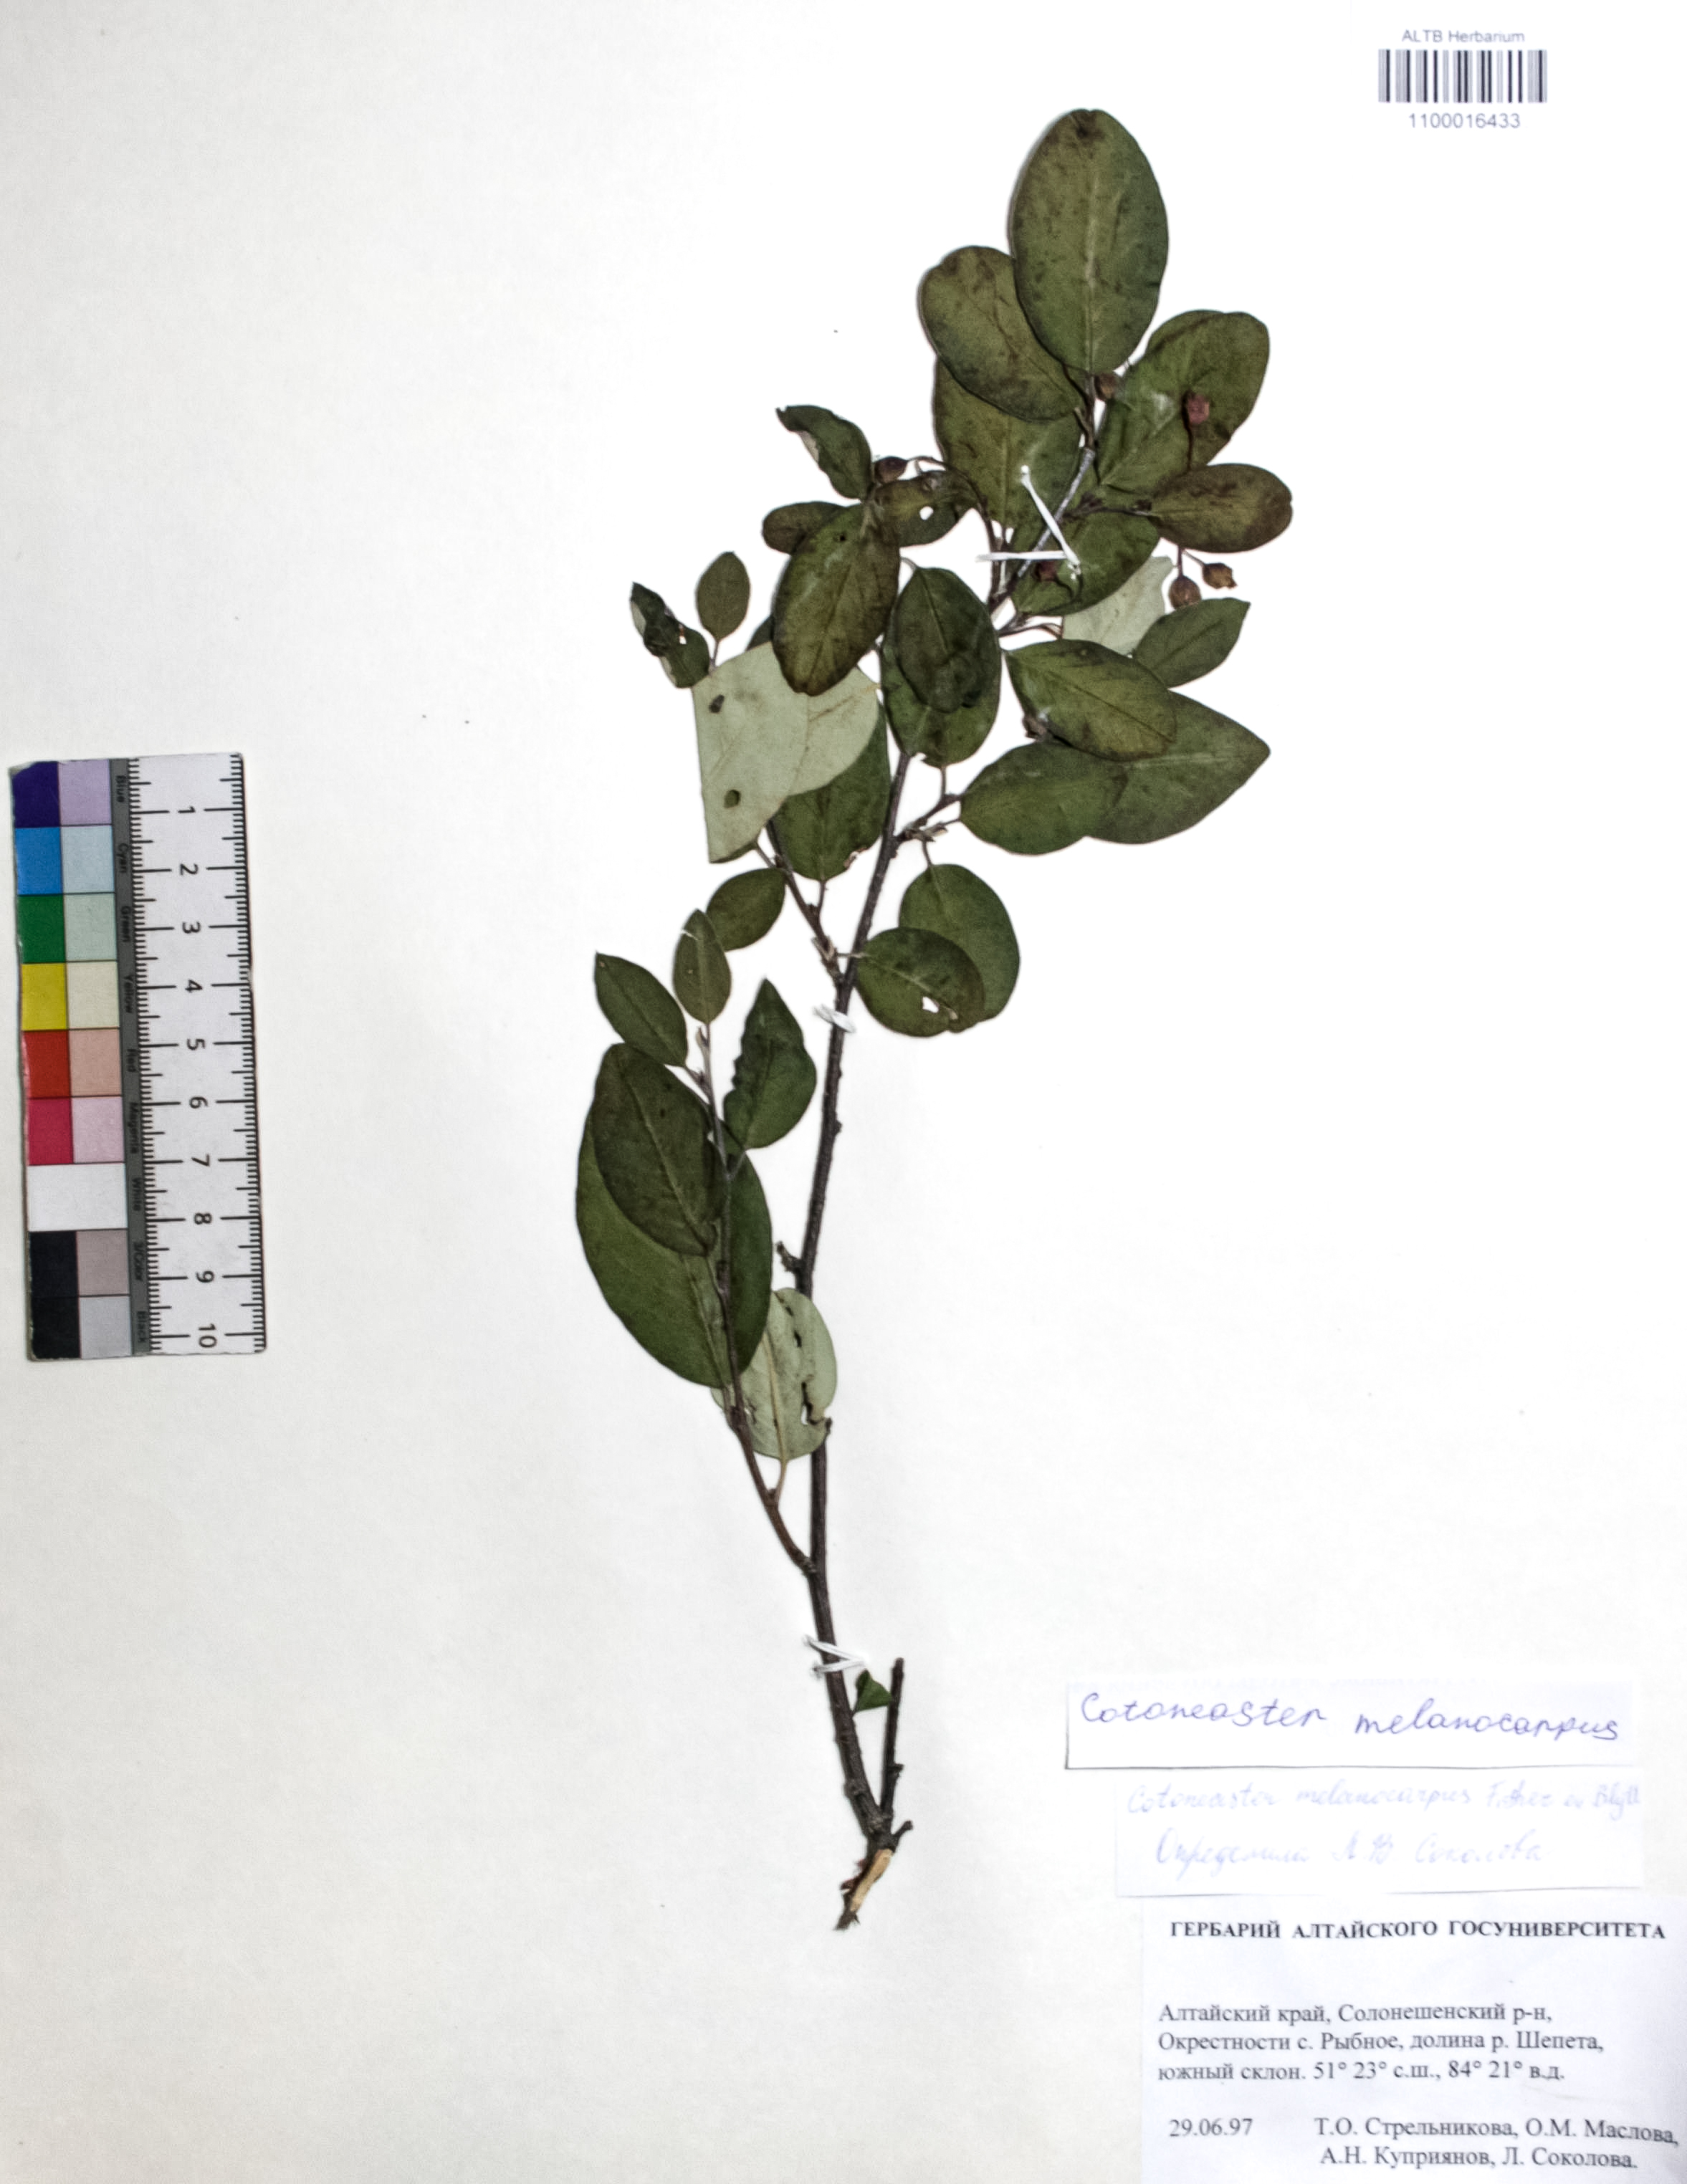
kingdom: Plantae
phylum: Tracheophyta
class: Magnoliopsida
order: Rosales
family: Rosaceae
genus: Cotoneaster
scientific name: Cotoneaster niger
